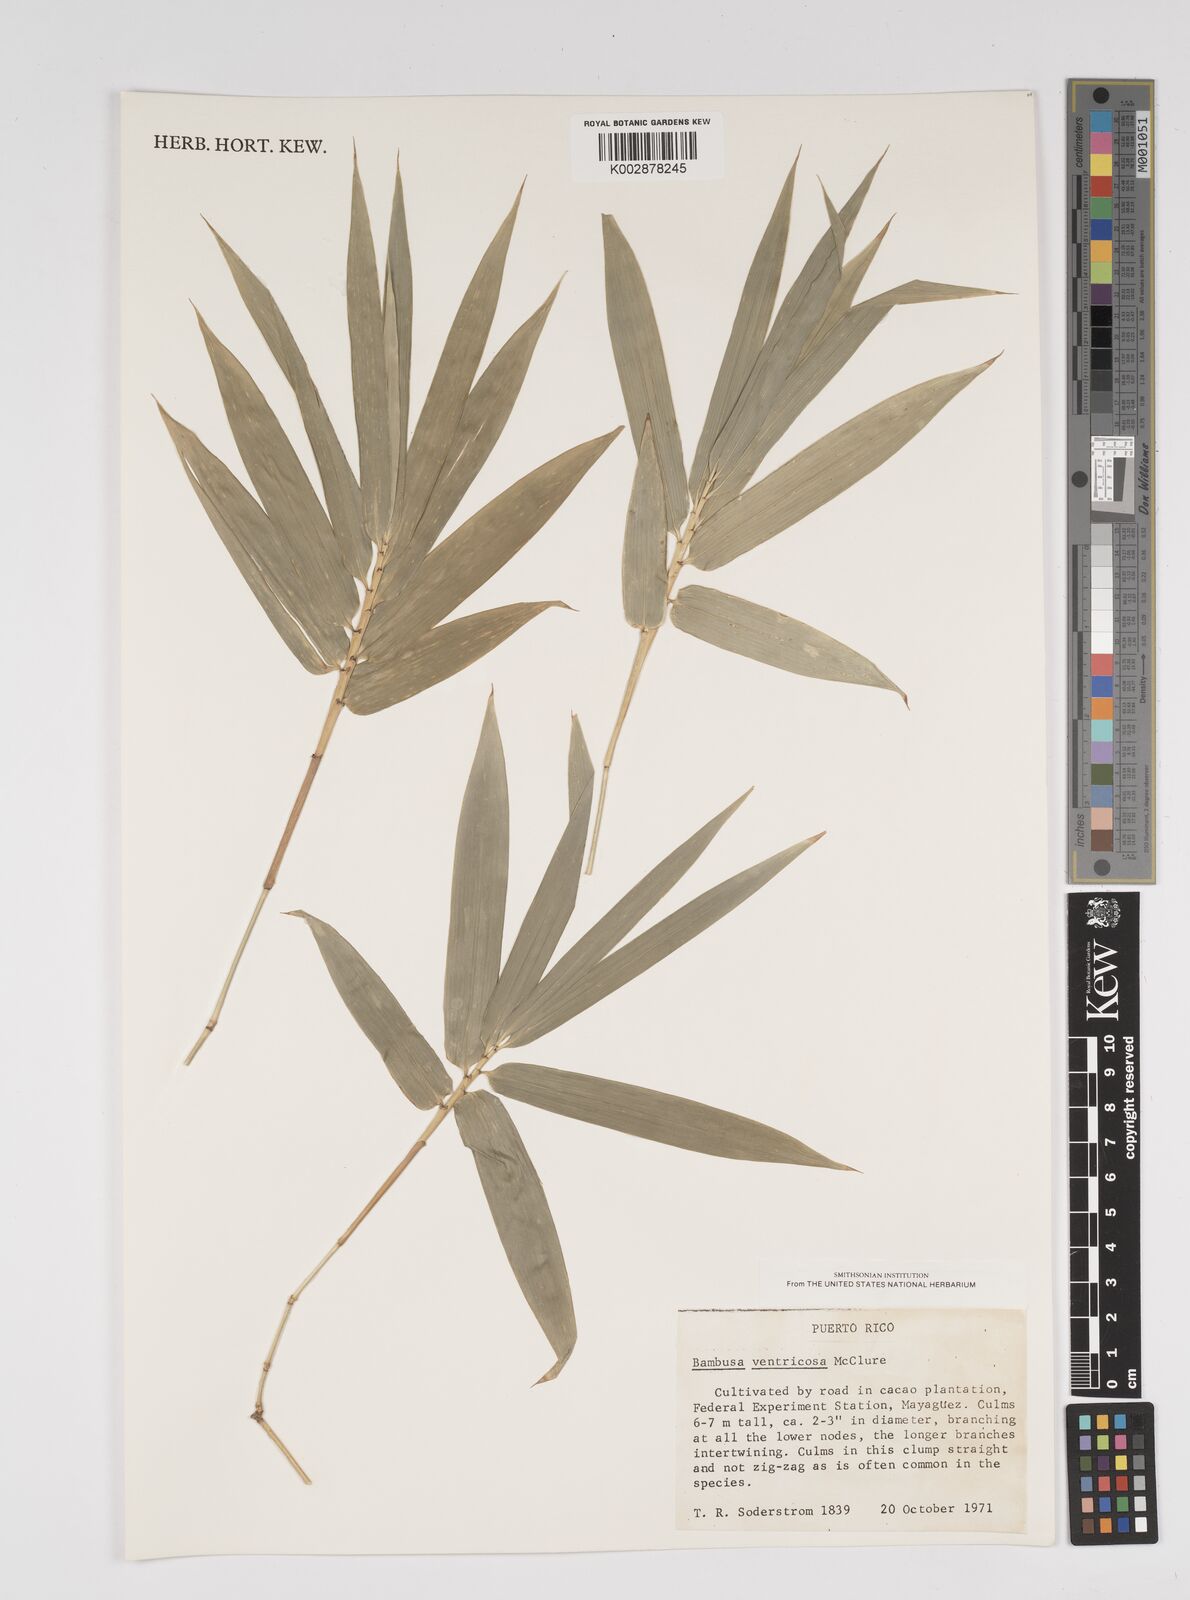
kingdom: Plantae
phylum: Tracheophyta
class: Liliopsida
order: Poales
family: Poaceae
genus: Bambusa
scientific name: Bambusa ventricosa
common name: Buddha bamboo
